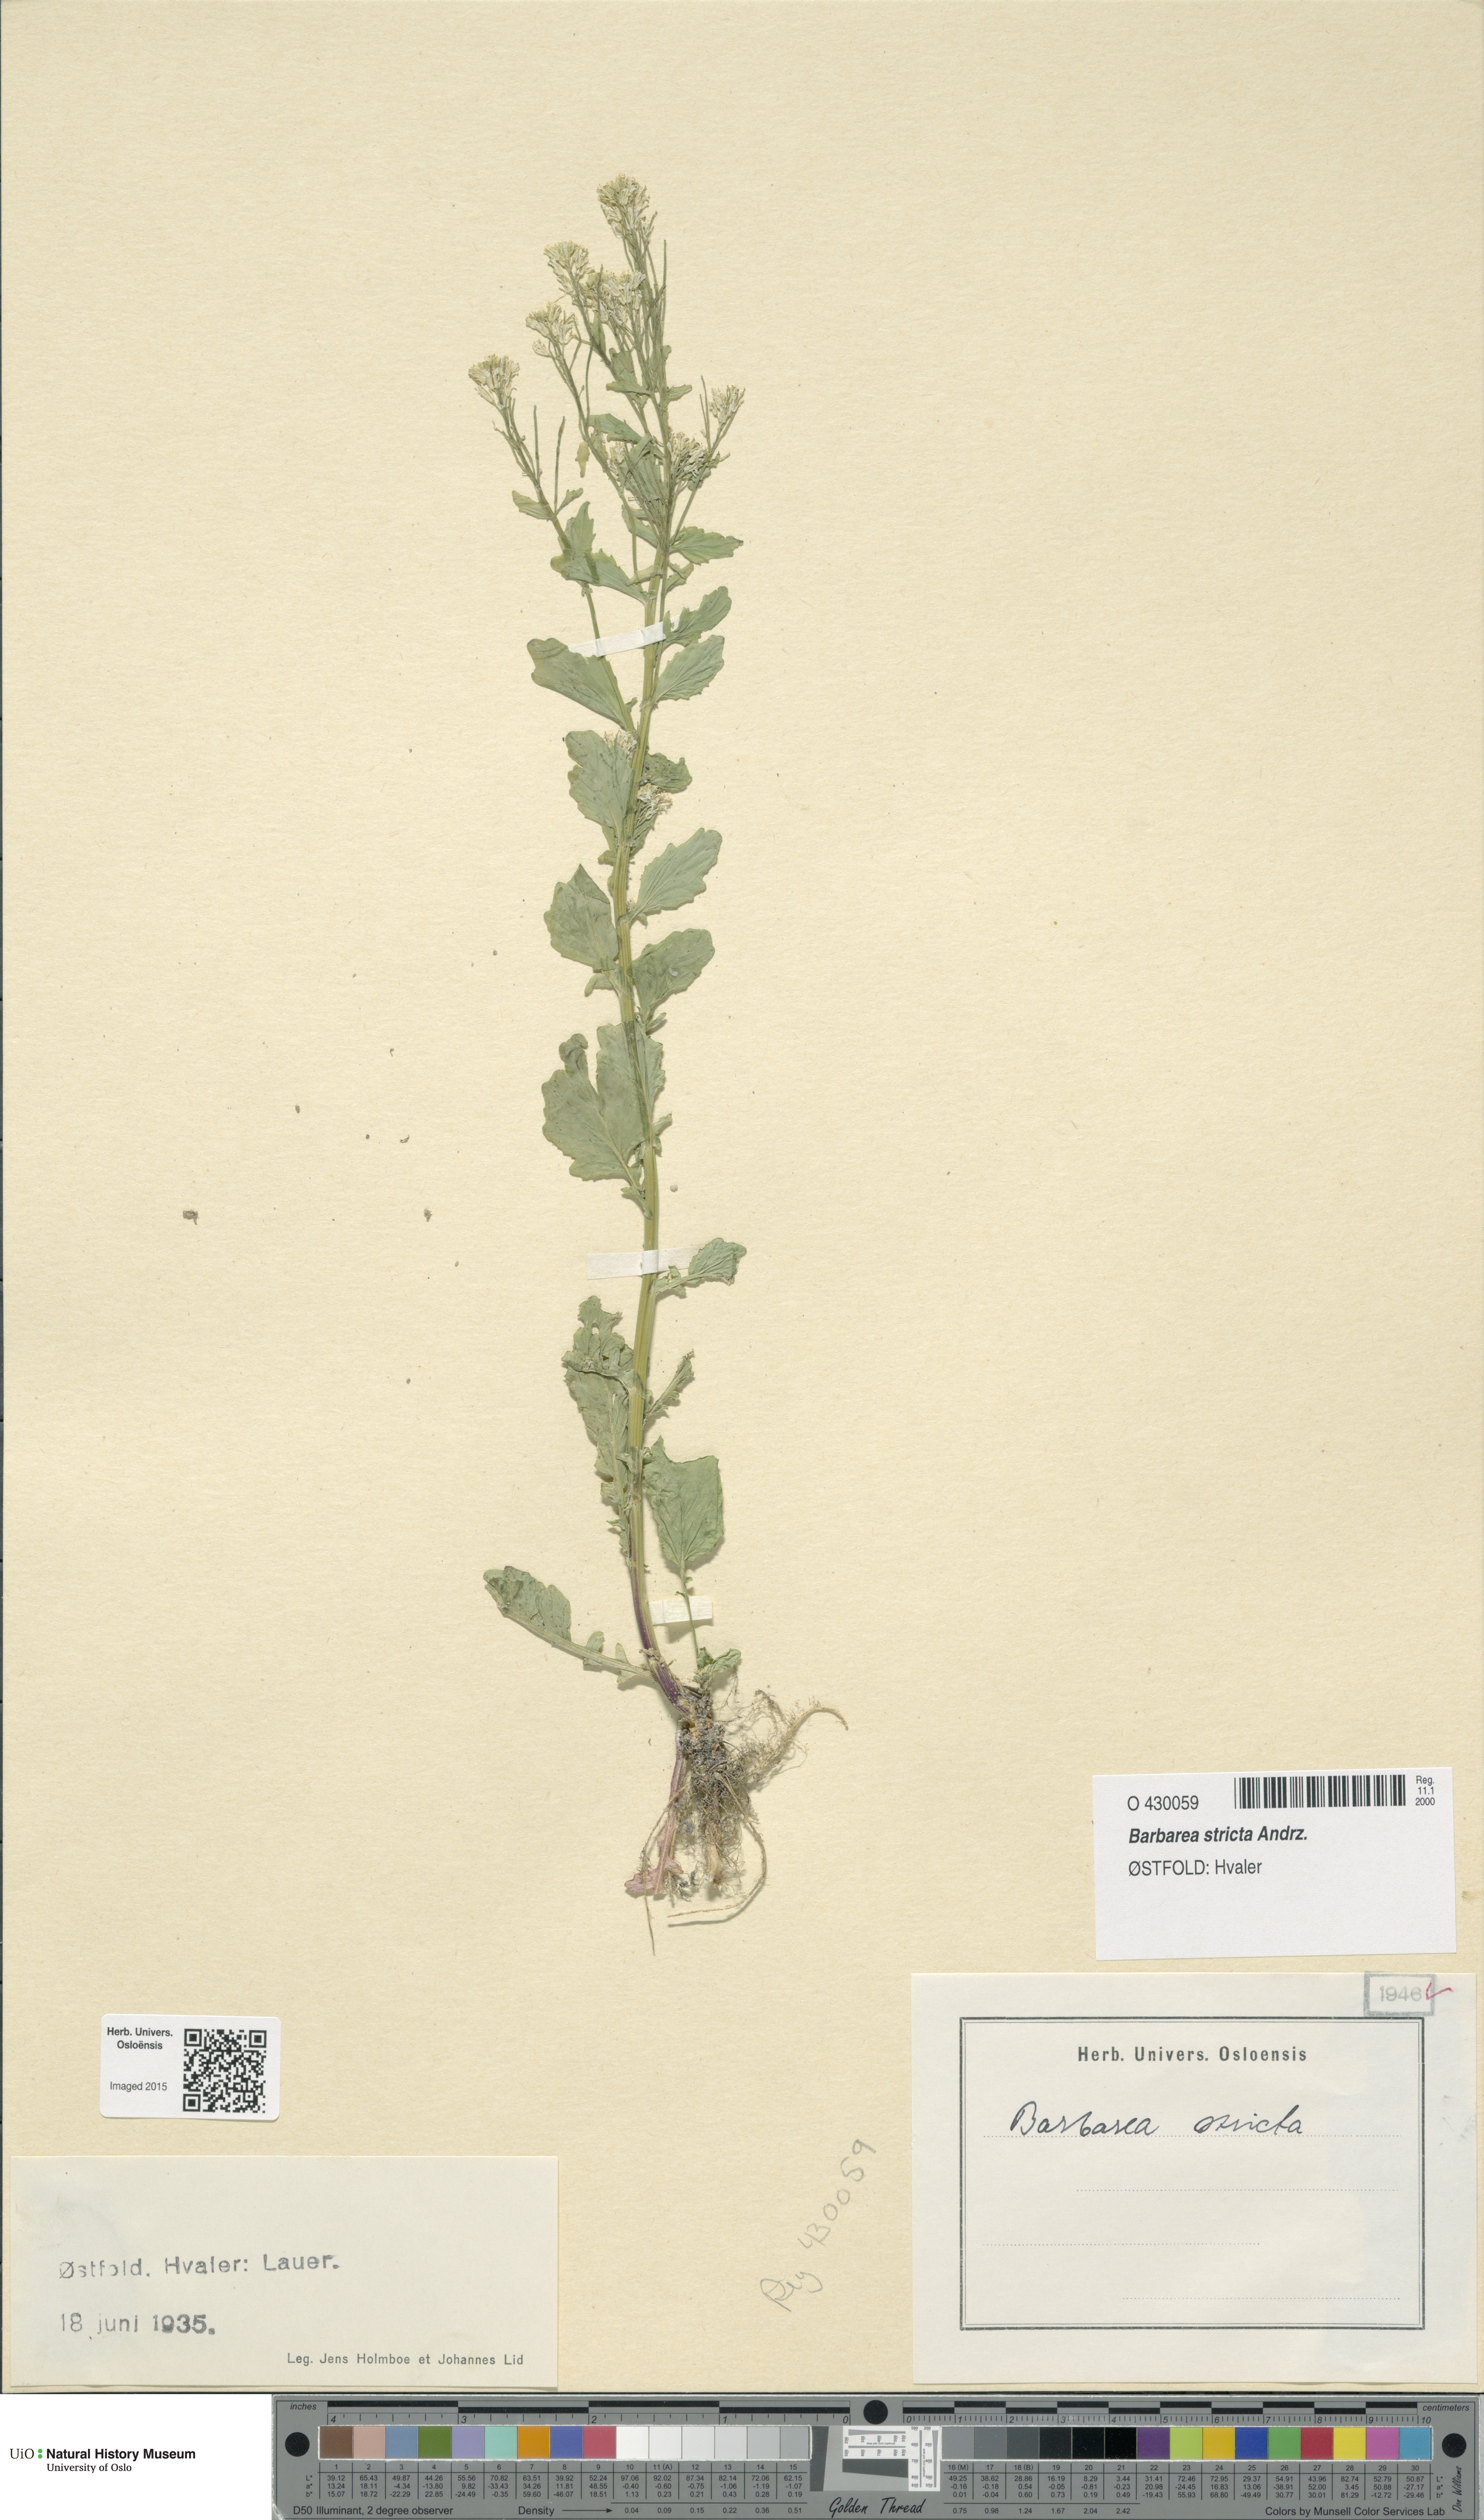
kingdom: Plantae
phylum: Tracheophyta
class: Magnoliopsida
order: Brassicales
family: Brassicaceae
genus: Barbarea
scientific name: Barbarea stricta
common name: Small-flowered winter-cress
